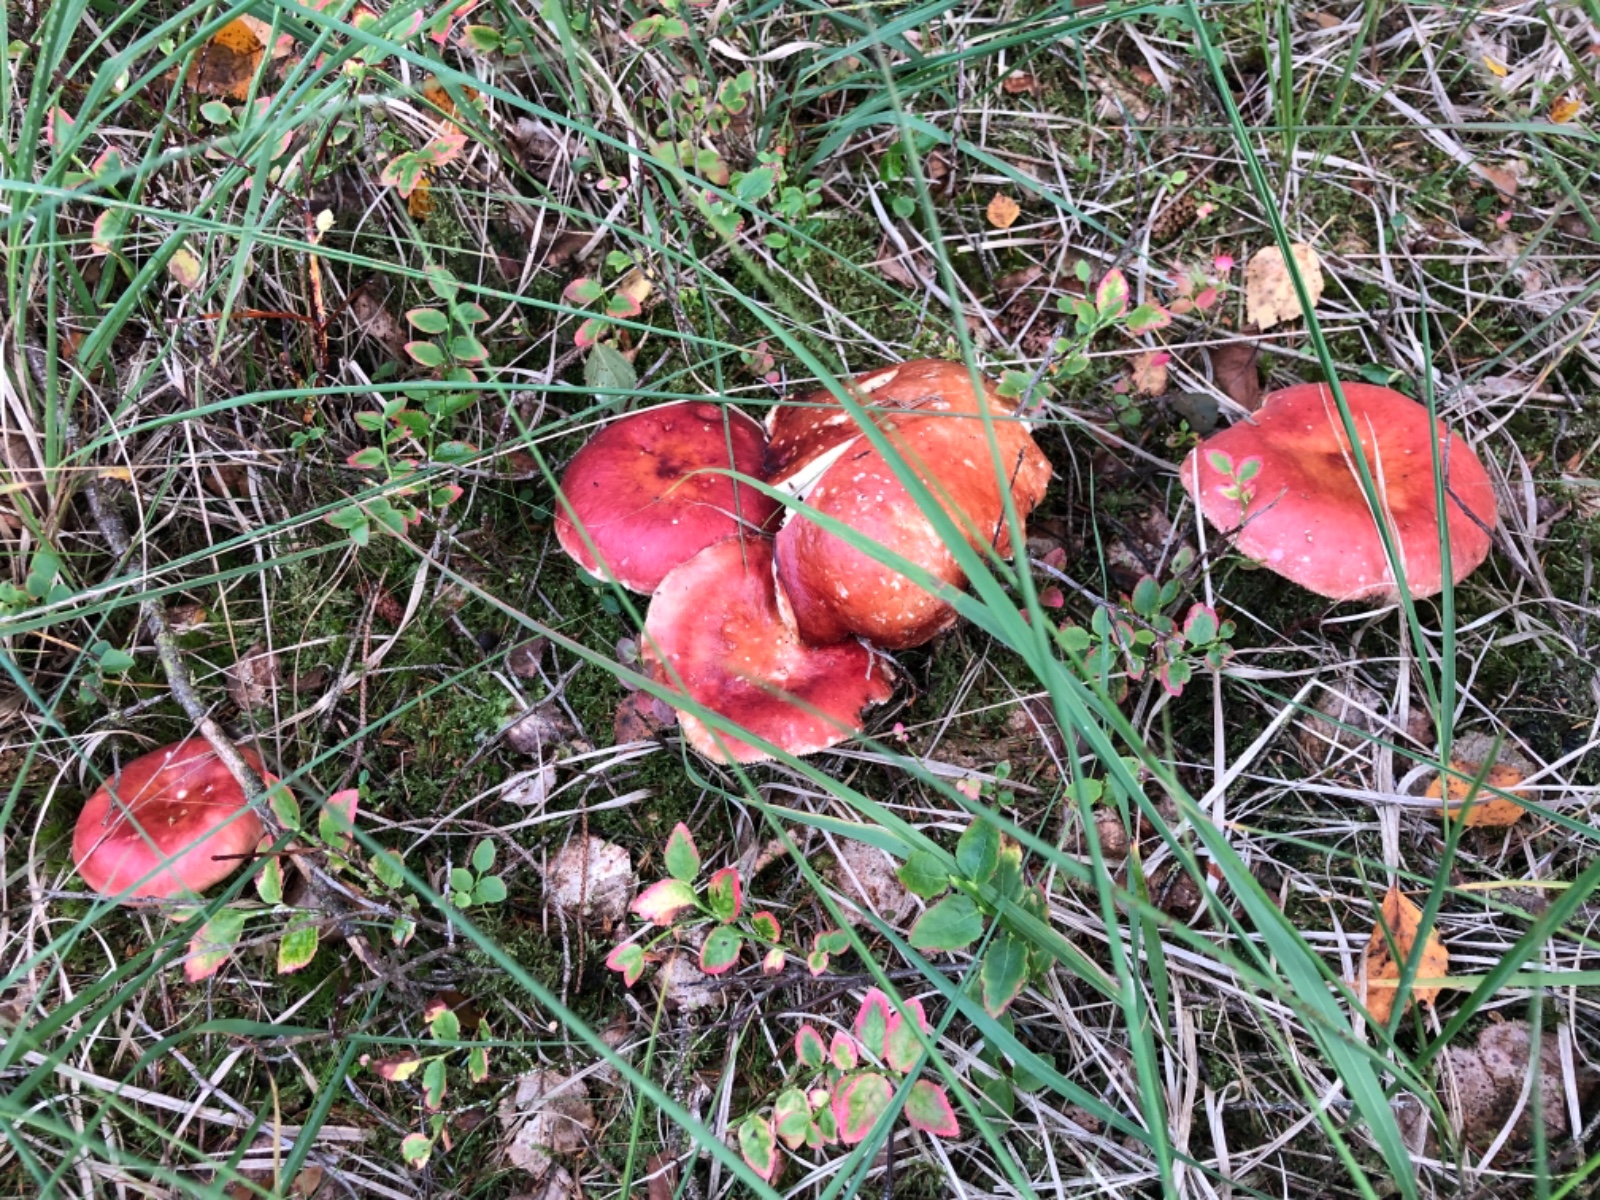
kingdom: Fungi
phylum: Basidiomycota
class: Agaricomycetes
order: Russulales
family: Russulaceae
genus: Russula
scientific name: Russula paludosa
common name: prægtig skørhat
